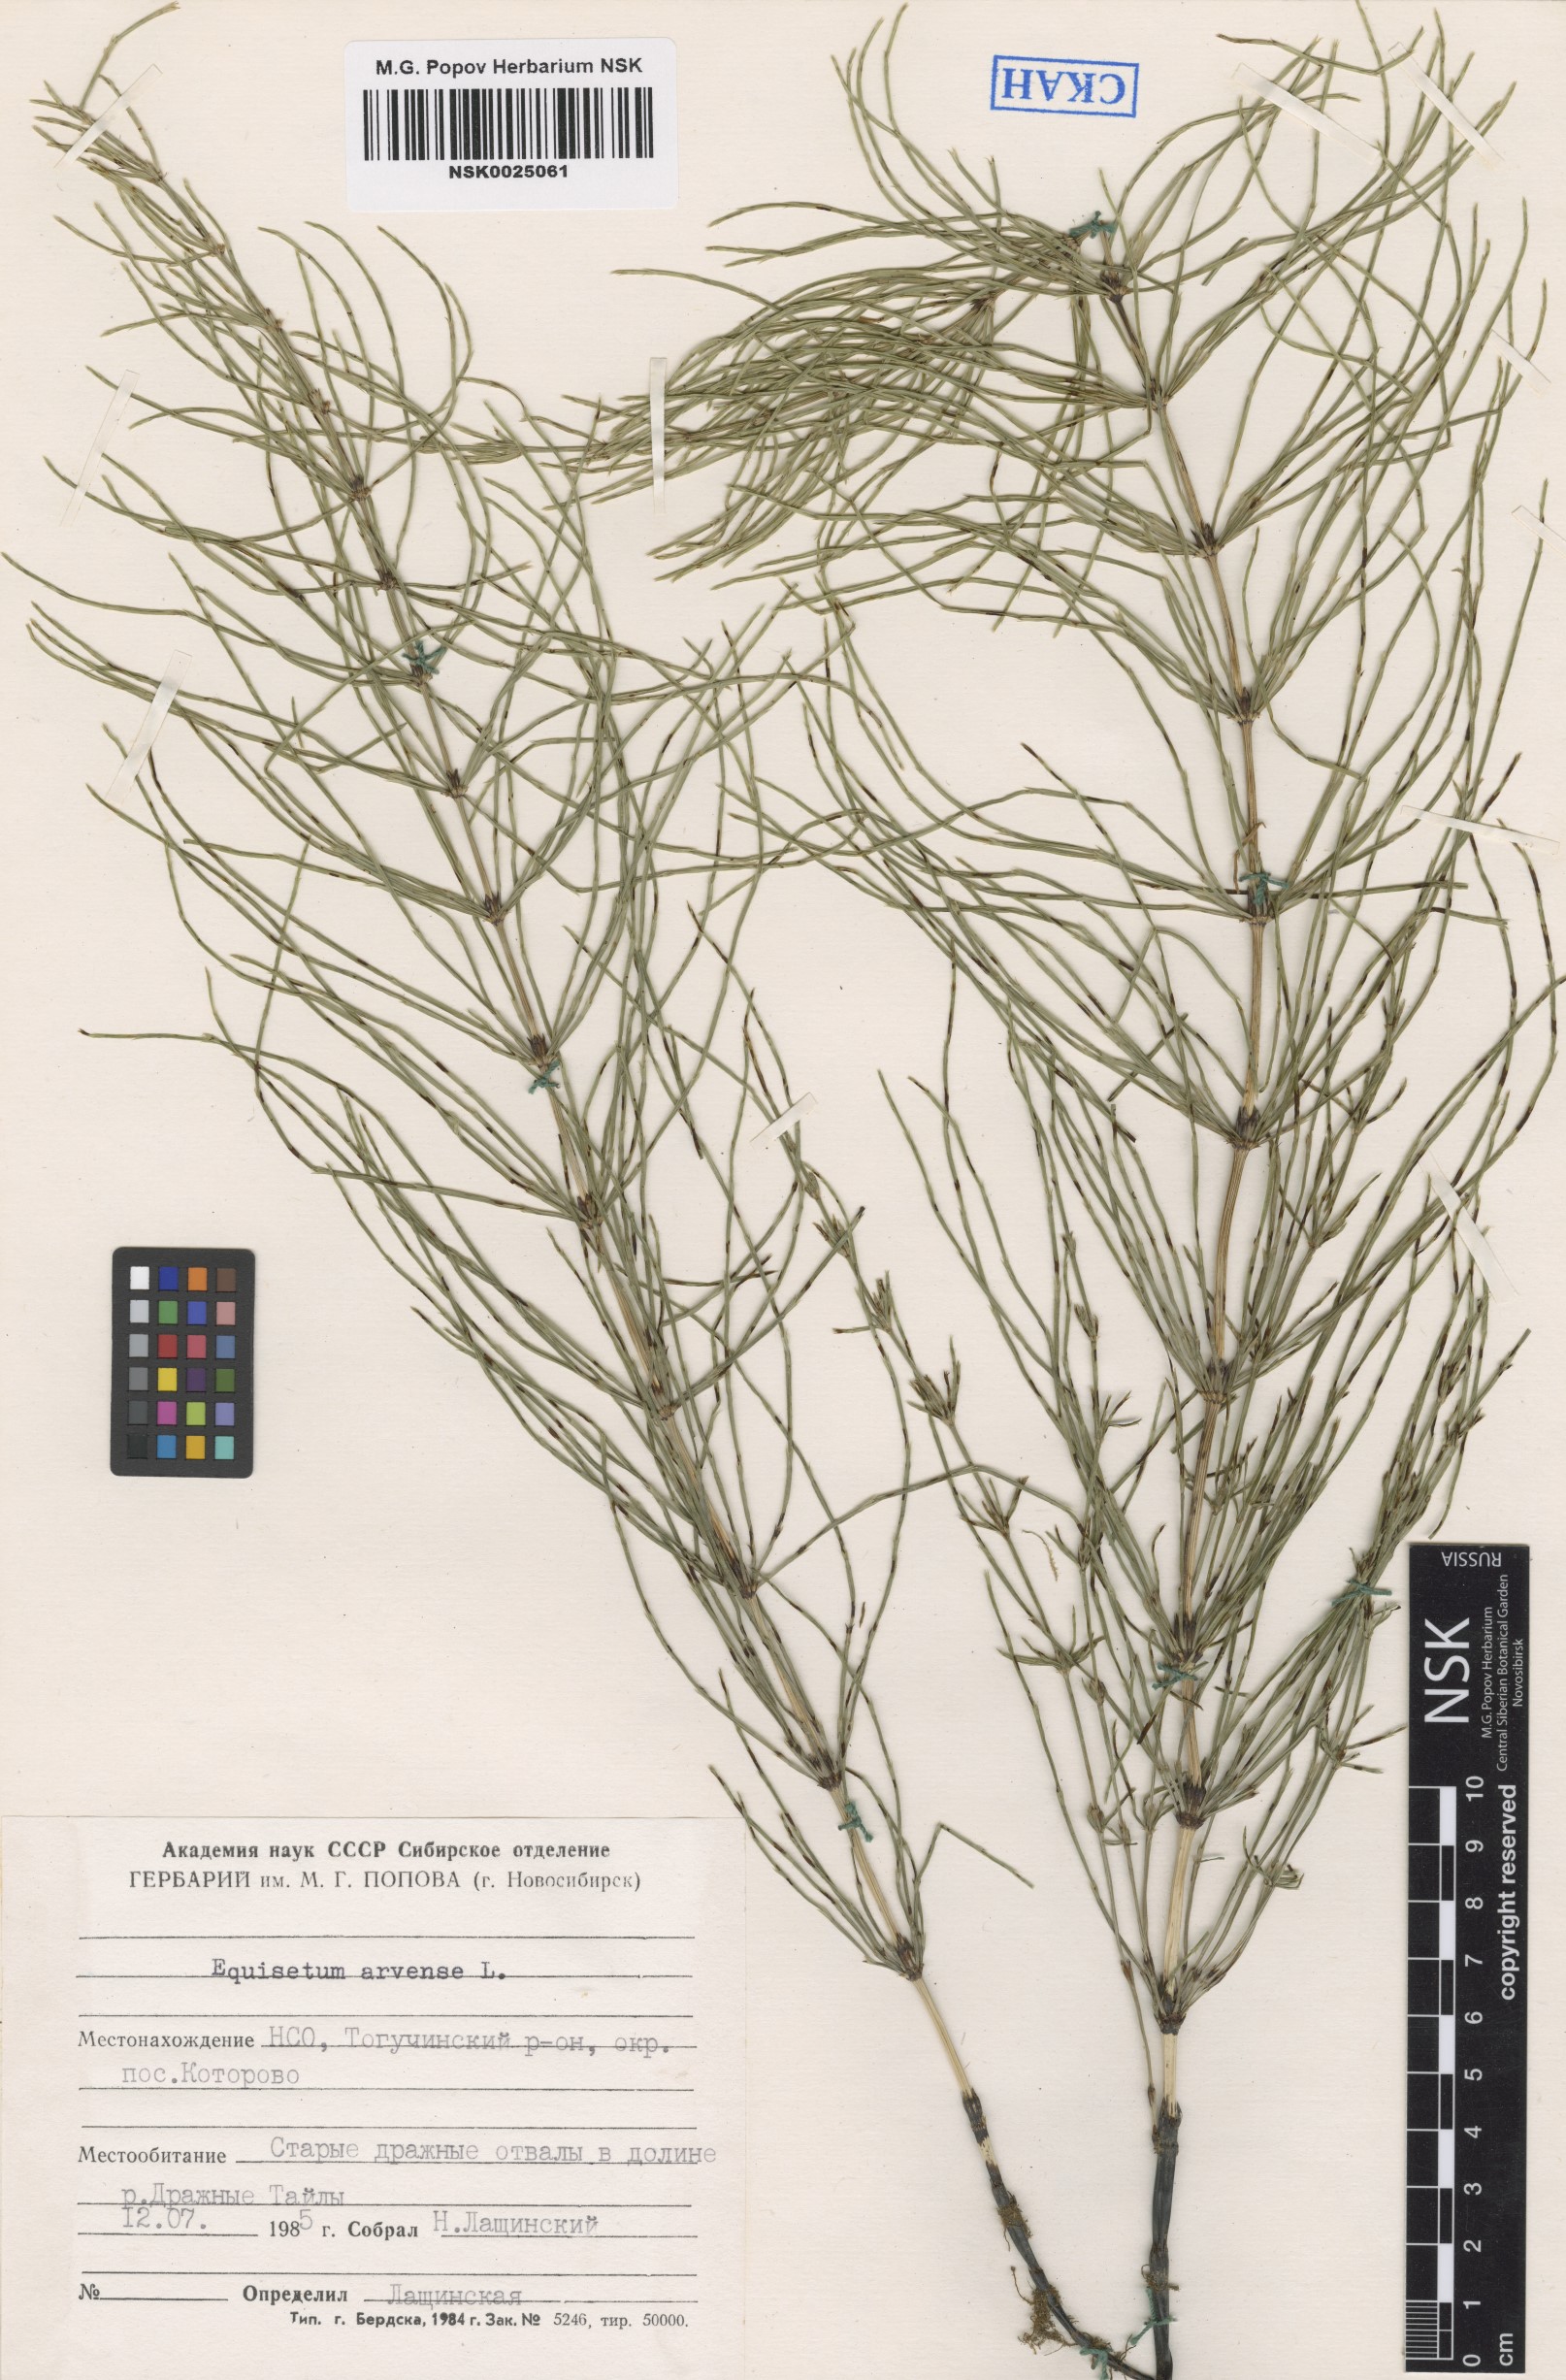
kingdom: Plantae
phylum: Tracheophyta
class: Polypodiopsida
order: Equisetales
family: Equisetaceae
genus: Equisetum
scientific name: Equisetum arvense
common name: Field horsetail
